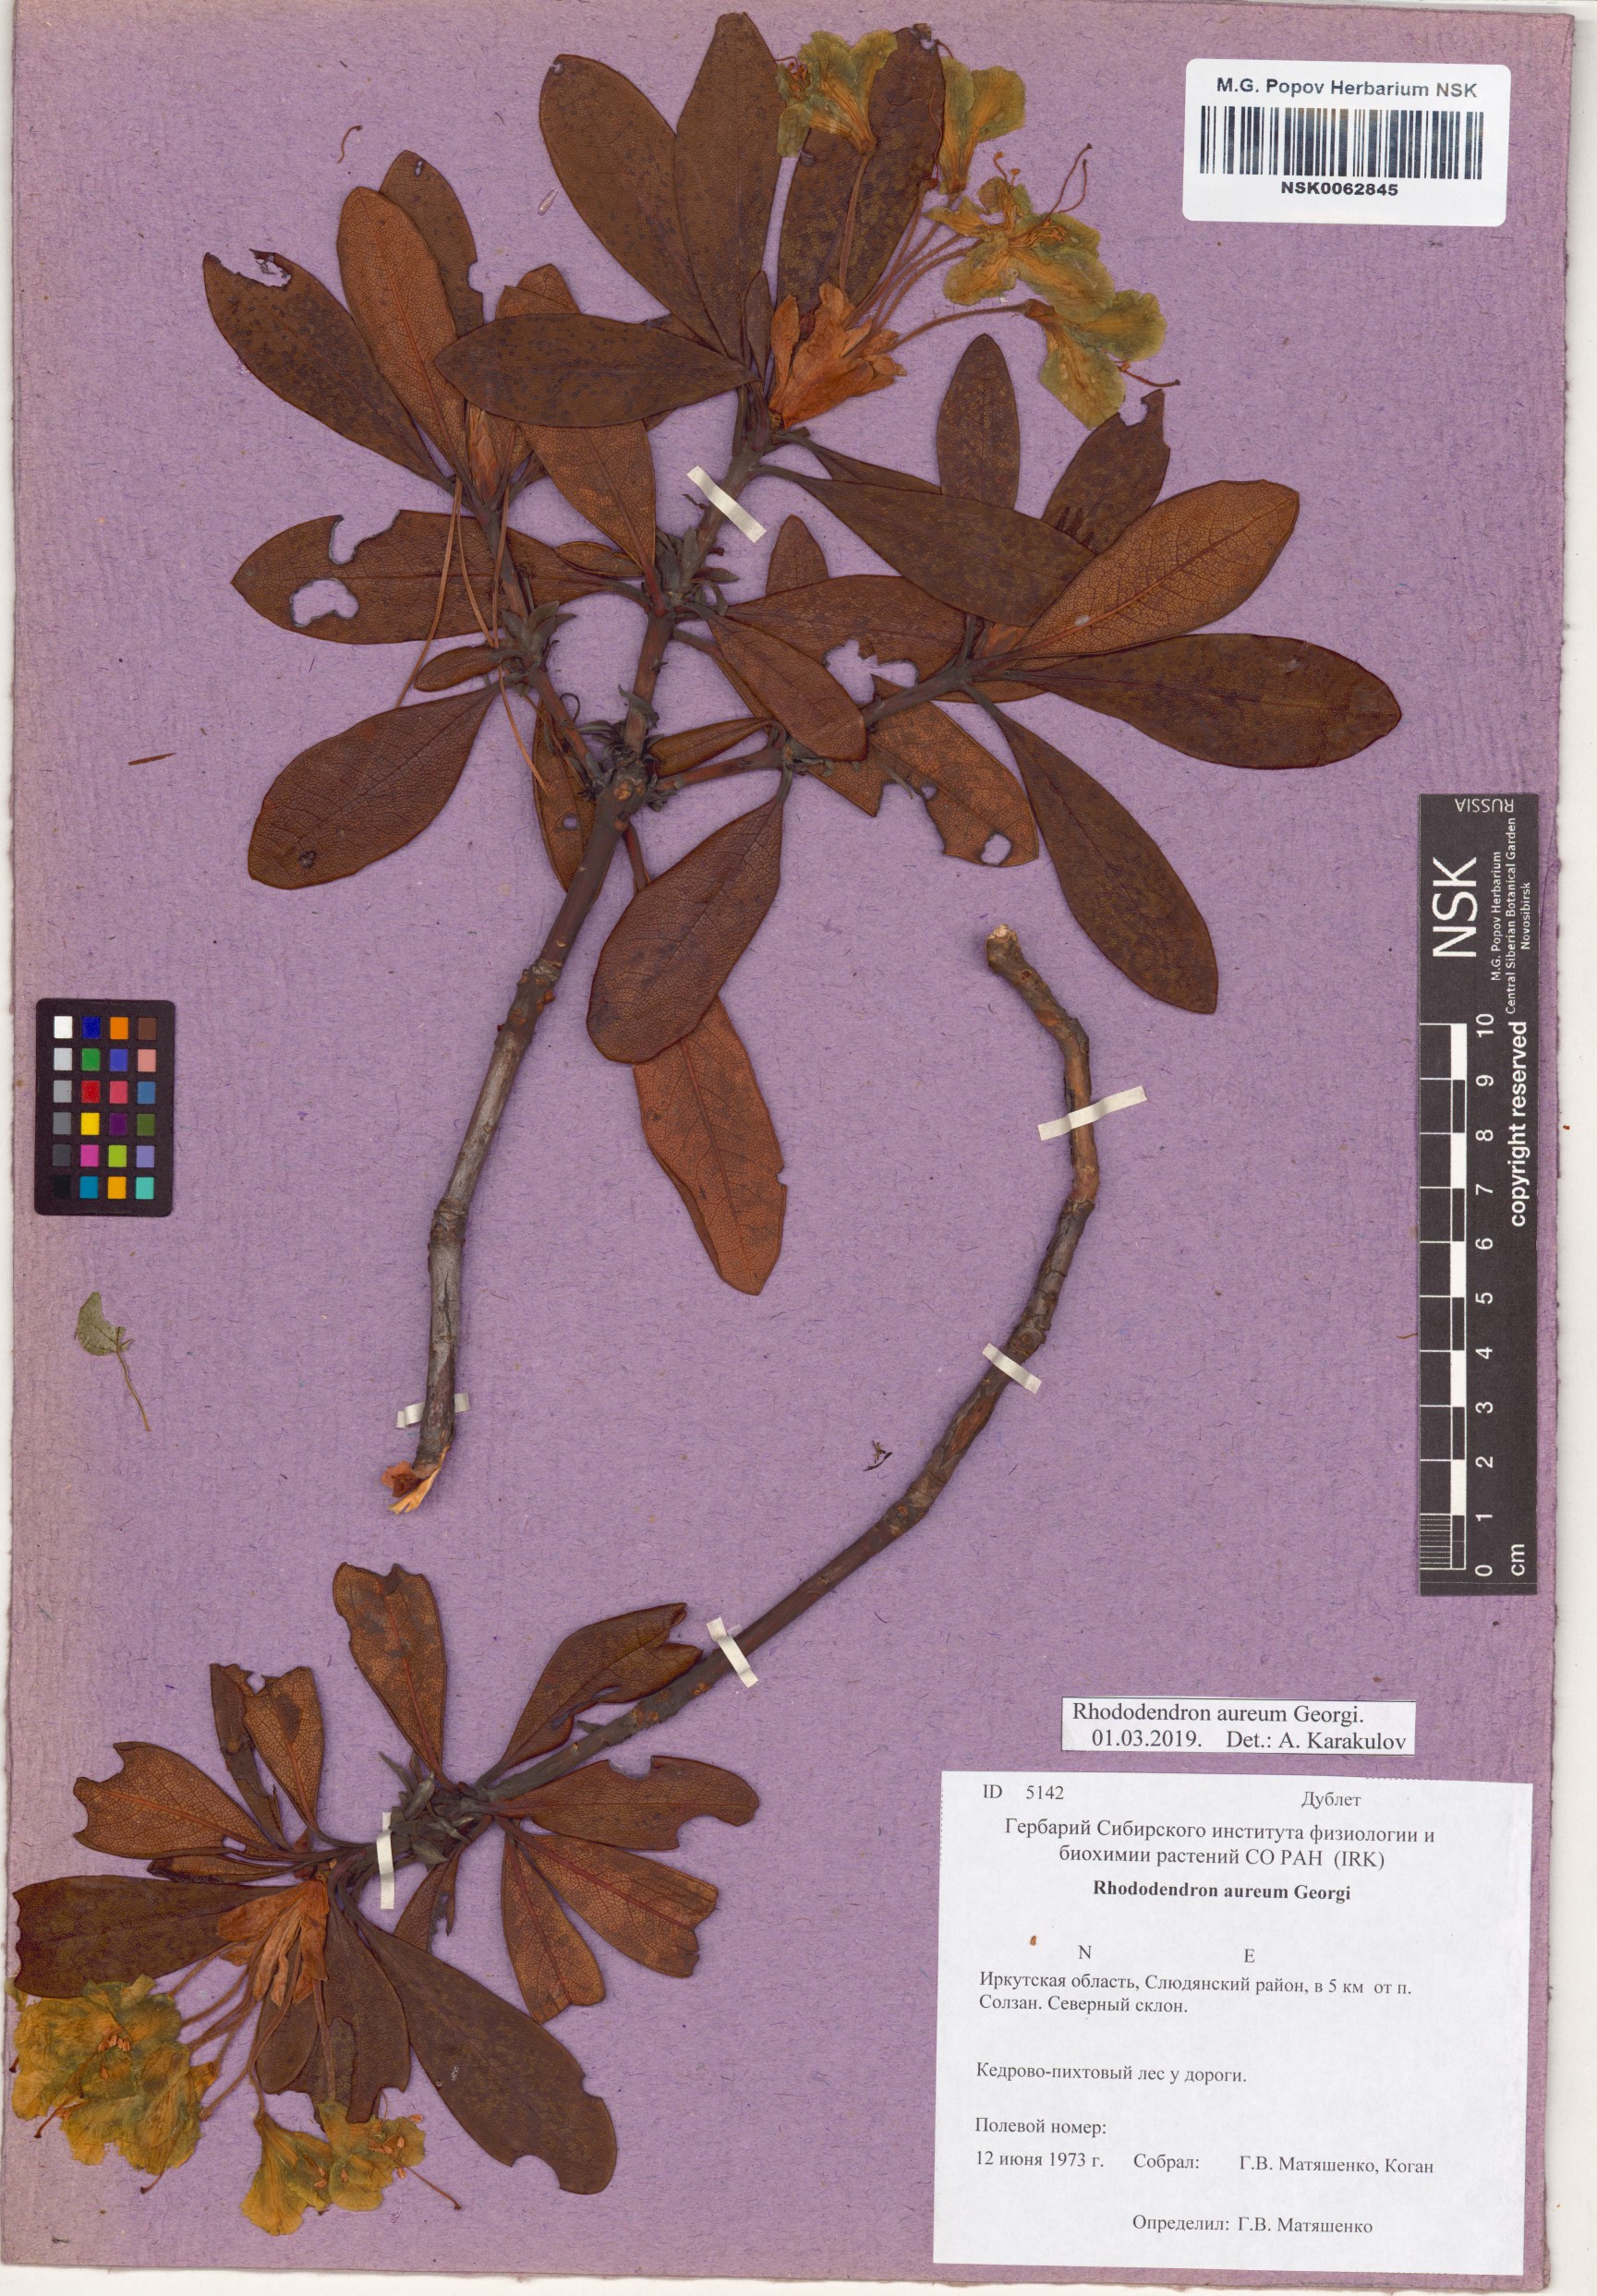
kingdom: Plantae
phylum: Tracheophyta
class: Magnoliopsida
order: Ericales
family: Ericaceae
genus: Rhododendron
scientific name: Rhododendron aureum
